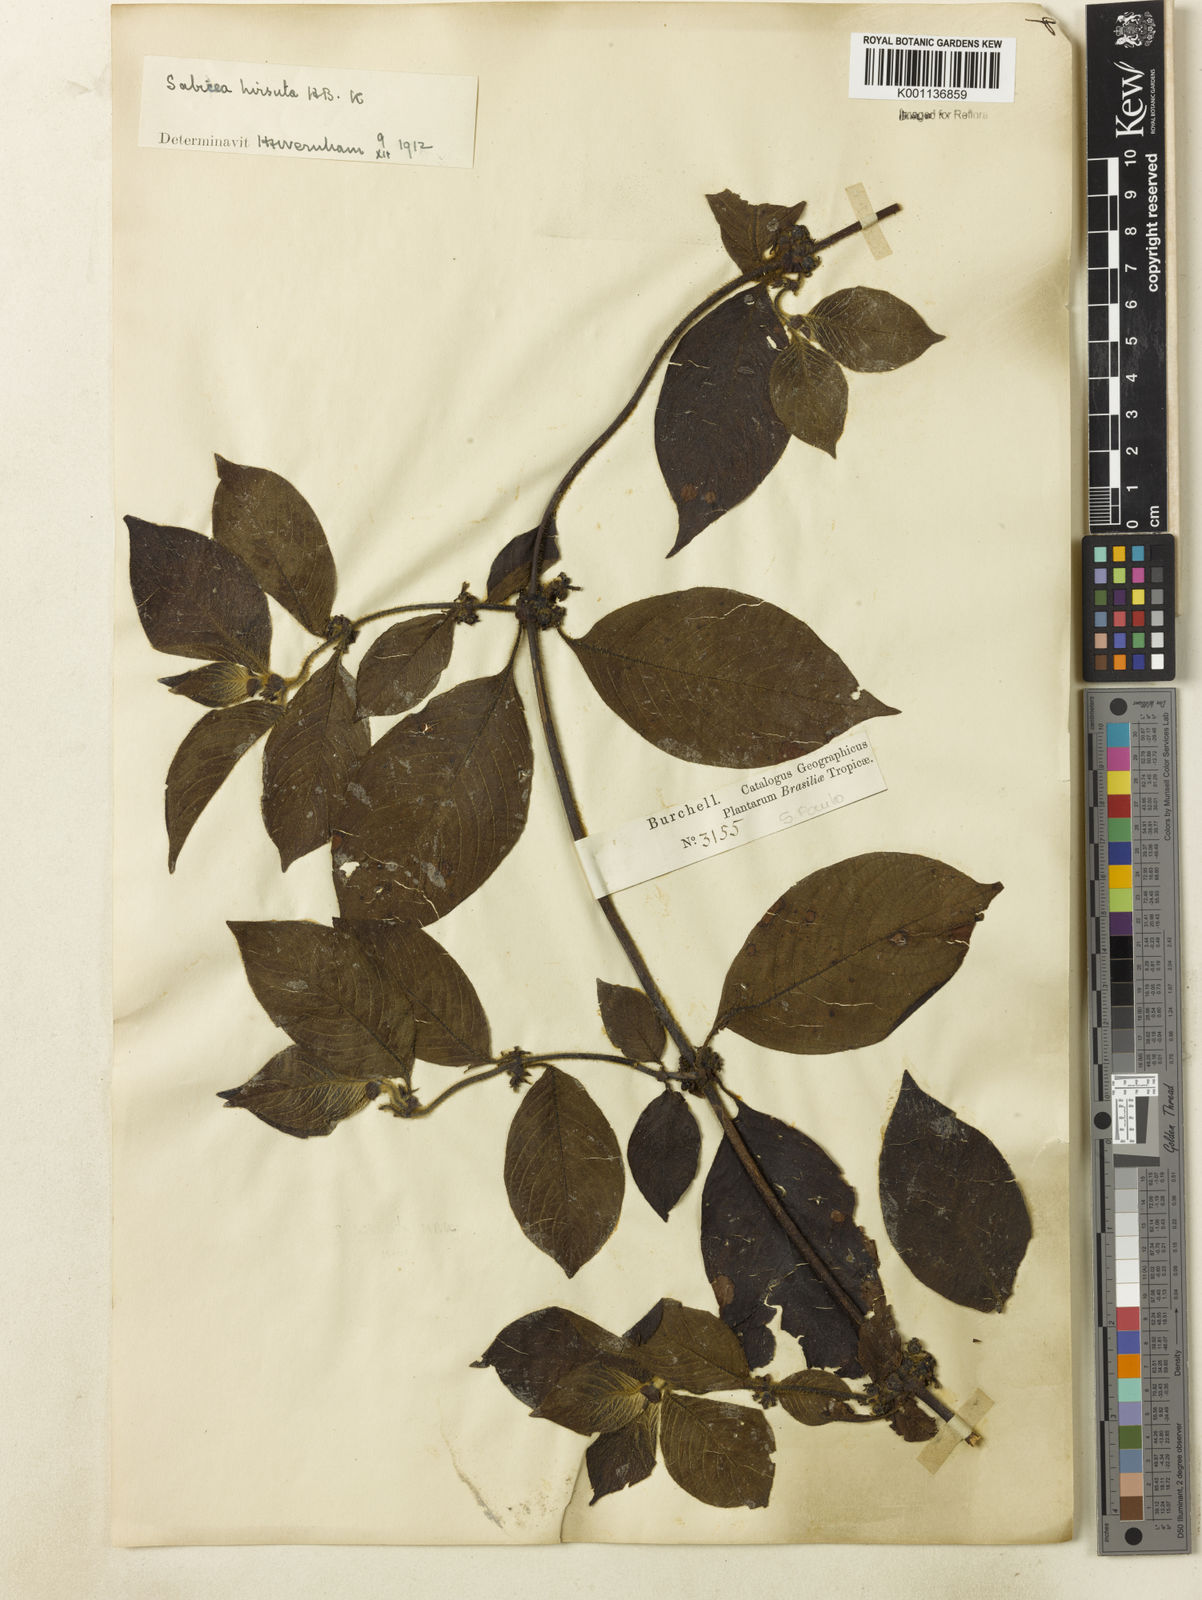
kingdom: Plantae
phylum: Tracheophyta
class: Magnoliopsida
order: Gentianales
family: Rubiaceae
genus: Sabicea
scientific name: Sabicea grisea
